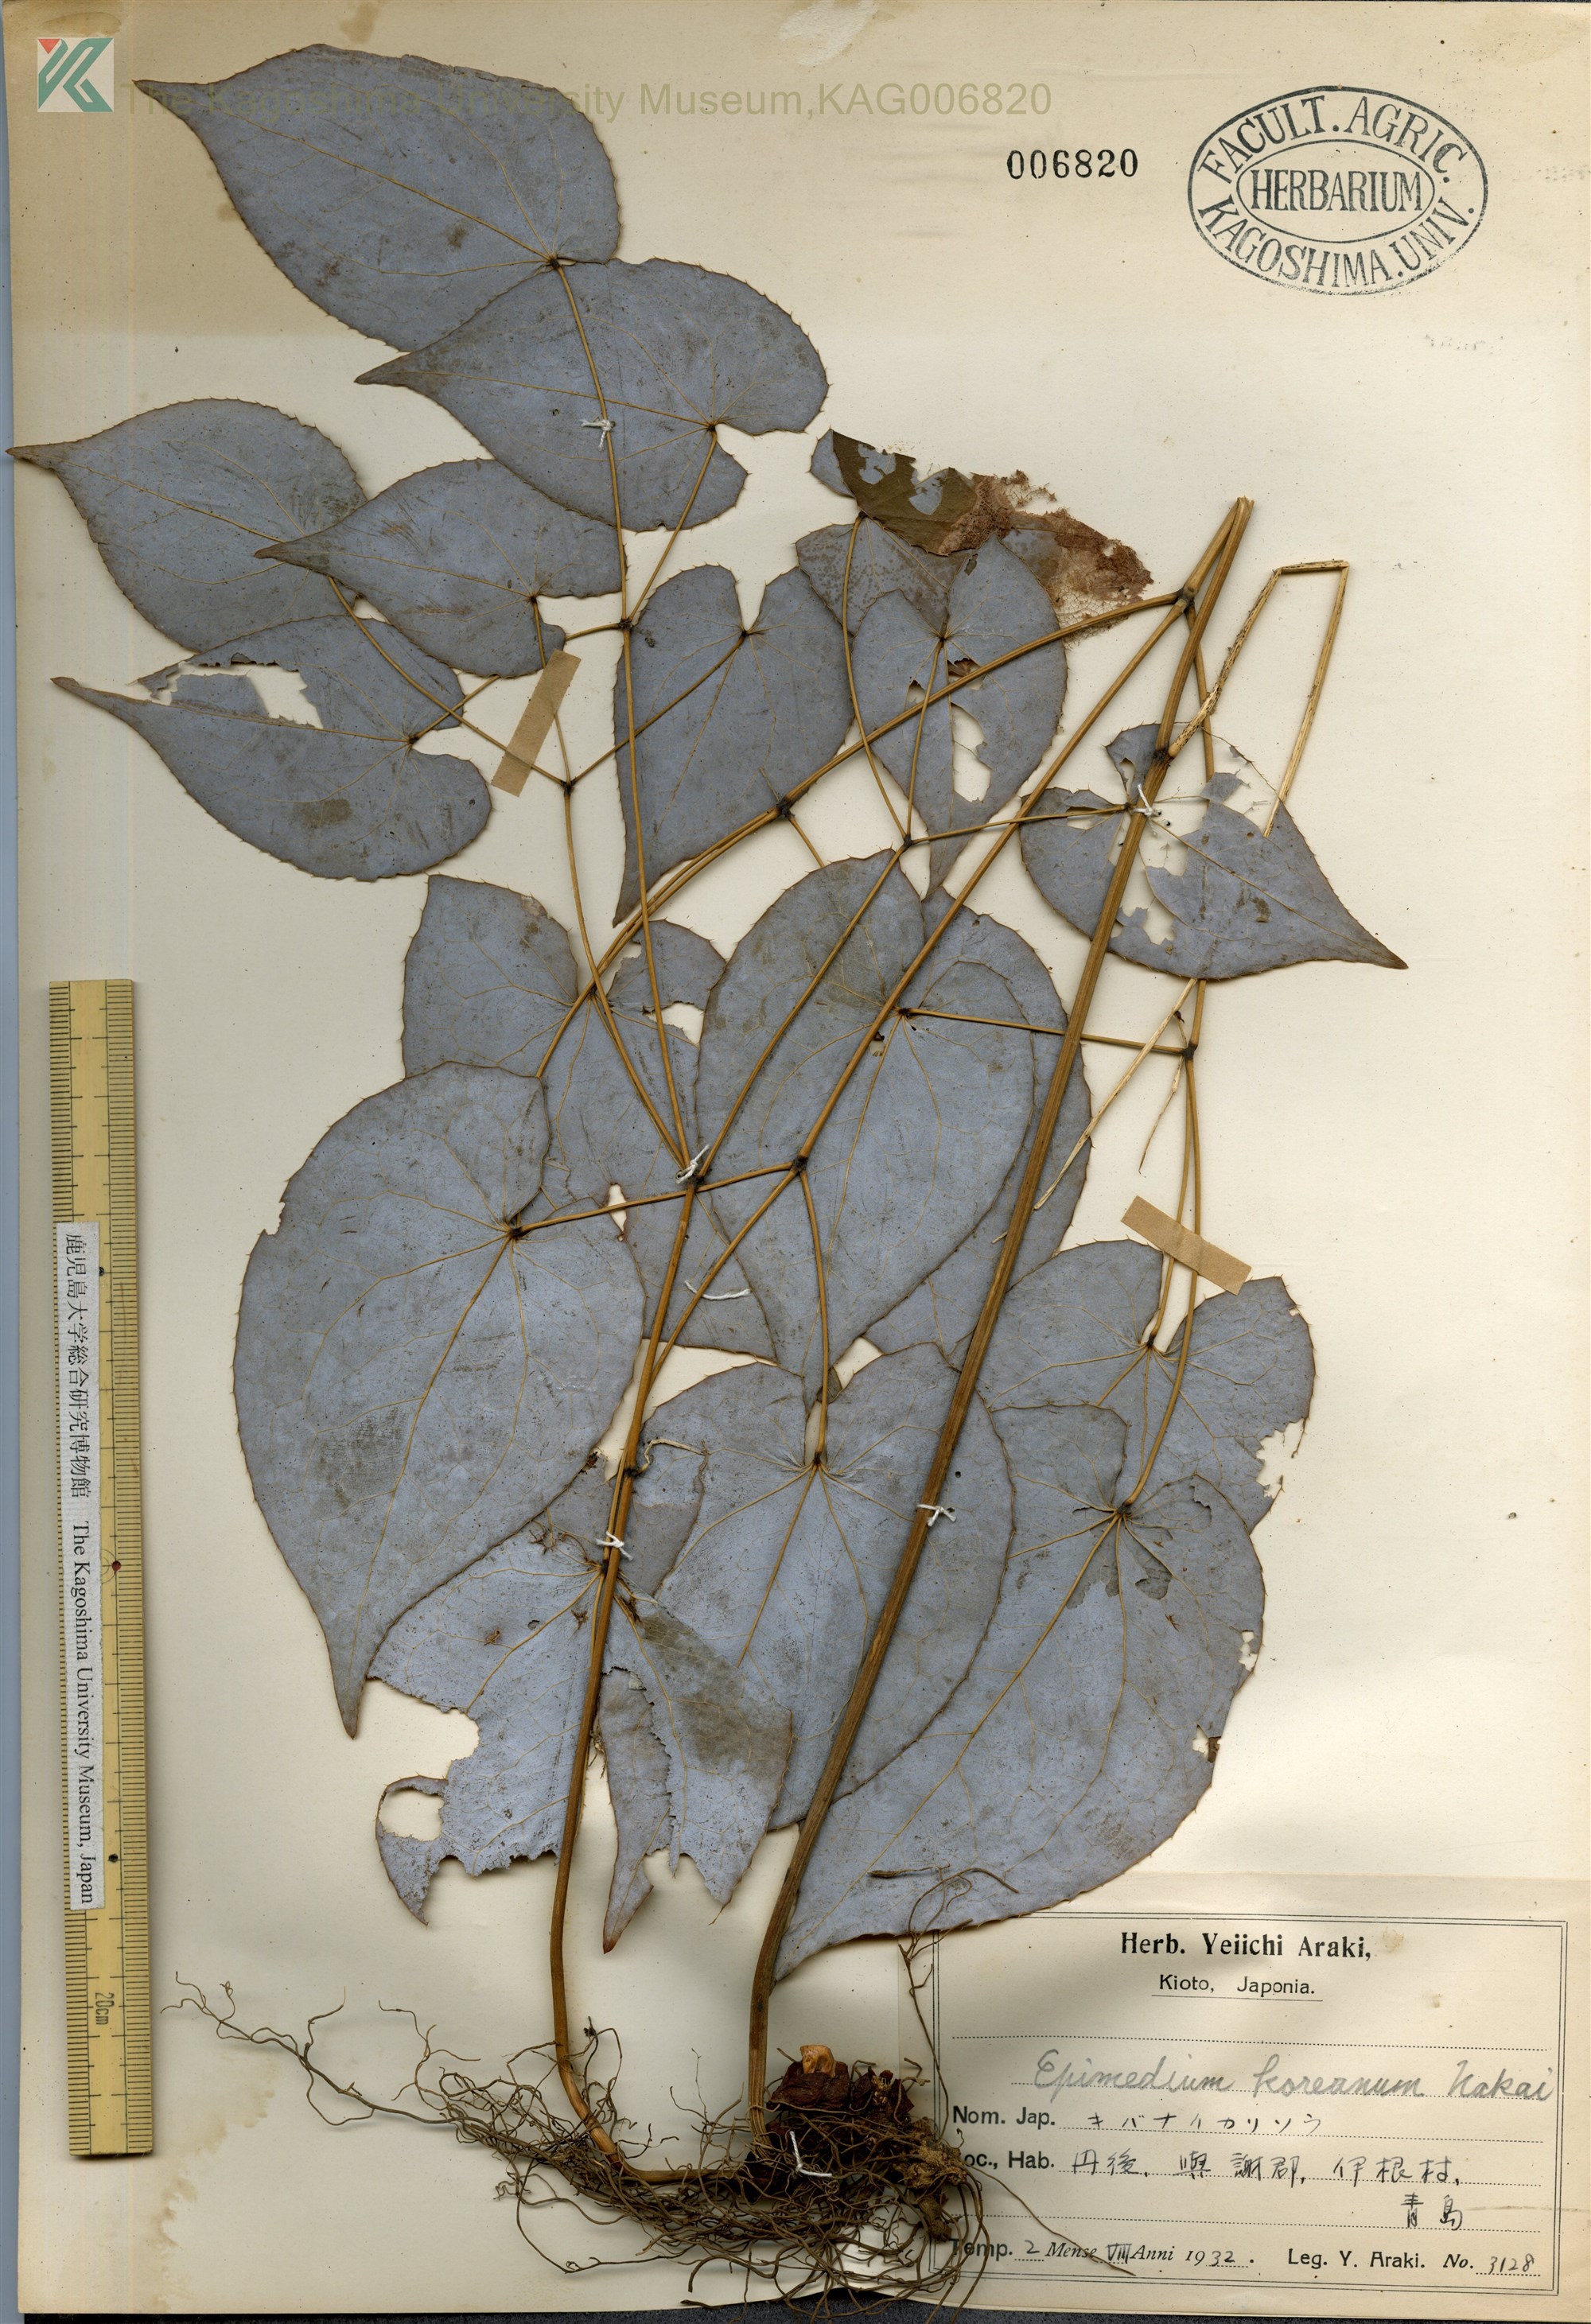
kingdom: Plantae
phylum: Tracheophyta
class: Magnoliopsida
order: Ranunculales
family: Berberidaceae
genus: Epimedium
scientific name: Epimedium koreanum
